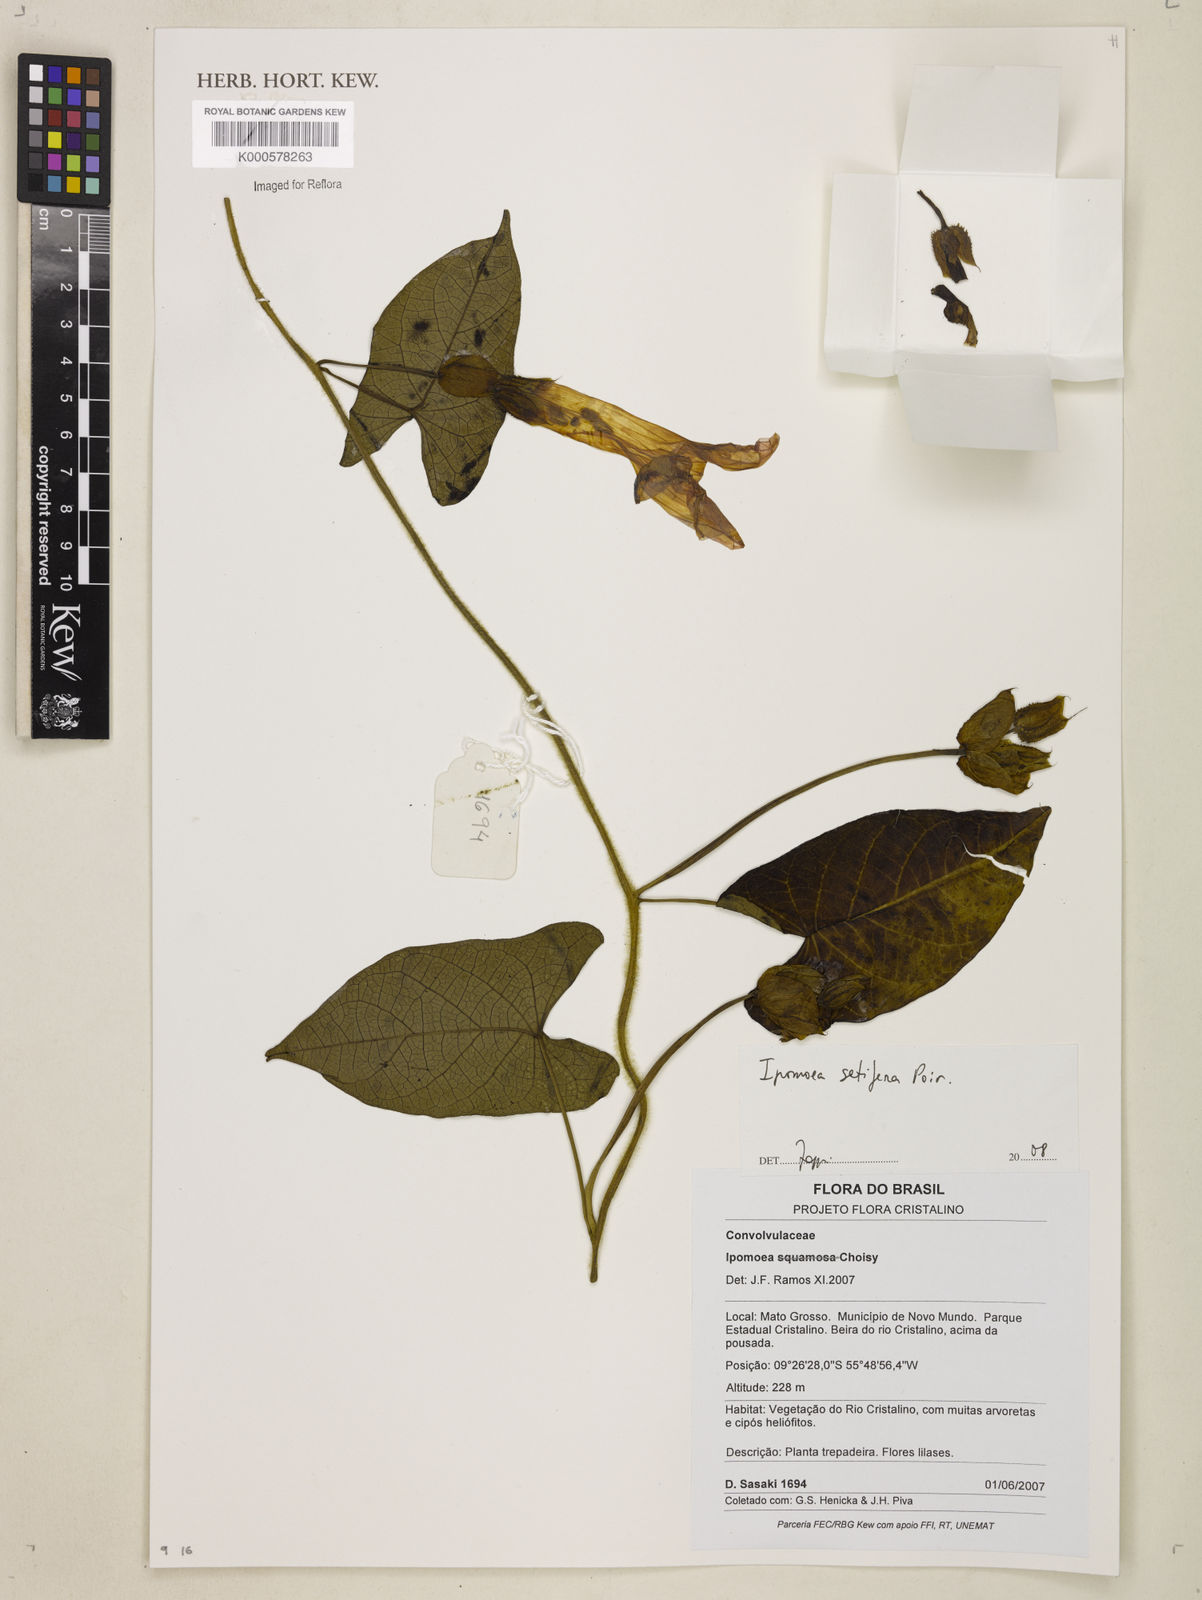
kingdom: Plantae
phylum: Tracheophyta
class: Magnoliopsida
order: Solanales
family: Convolvulaceae
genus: Ipomoea
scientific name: Ipomoea setifera
